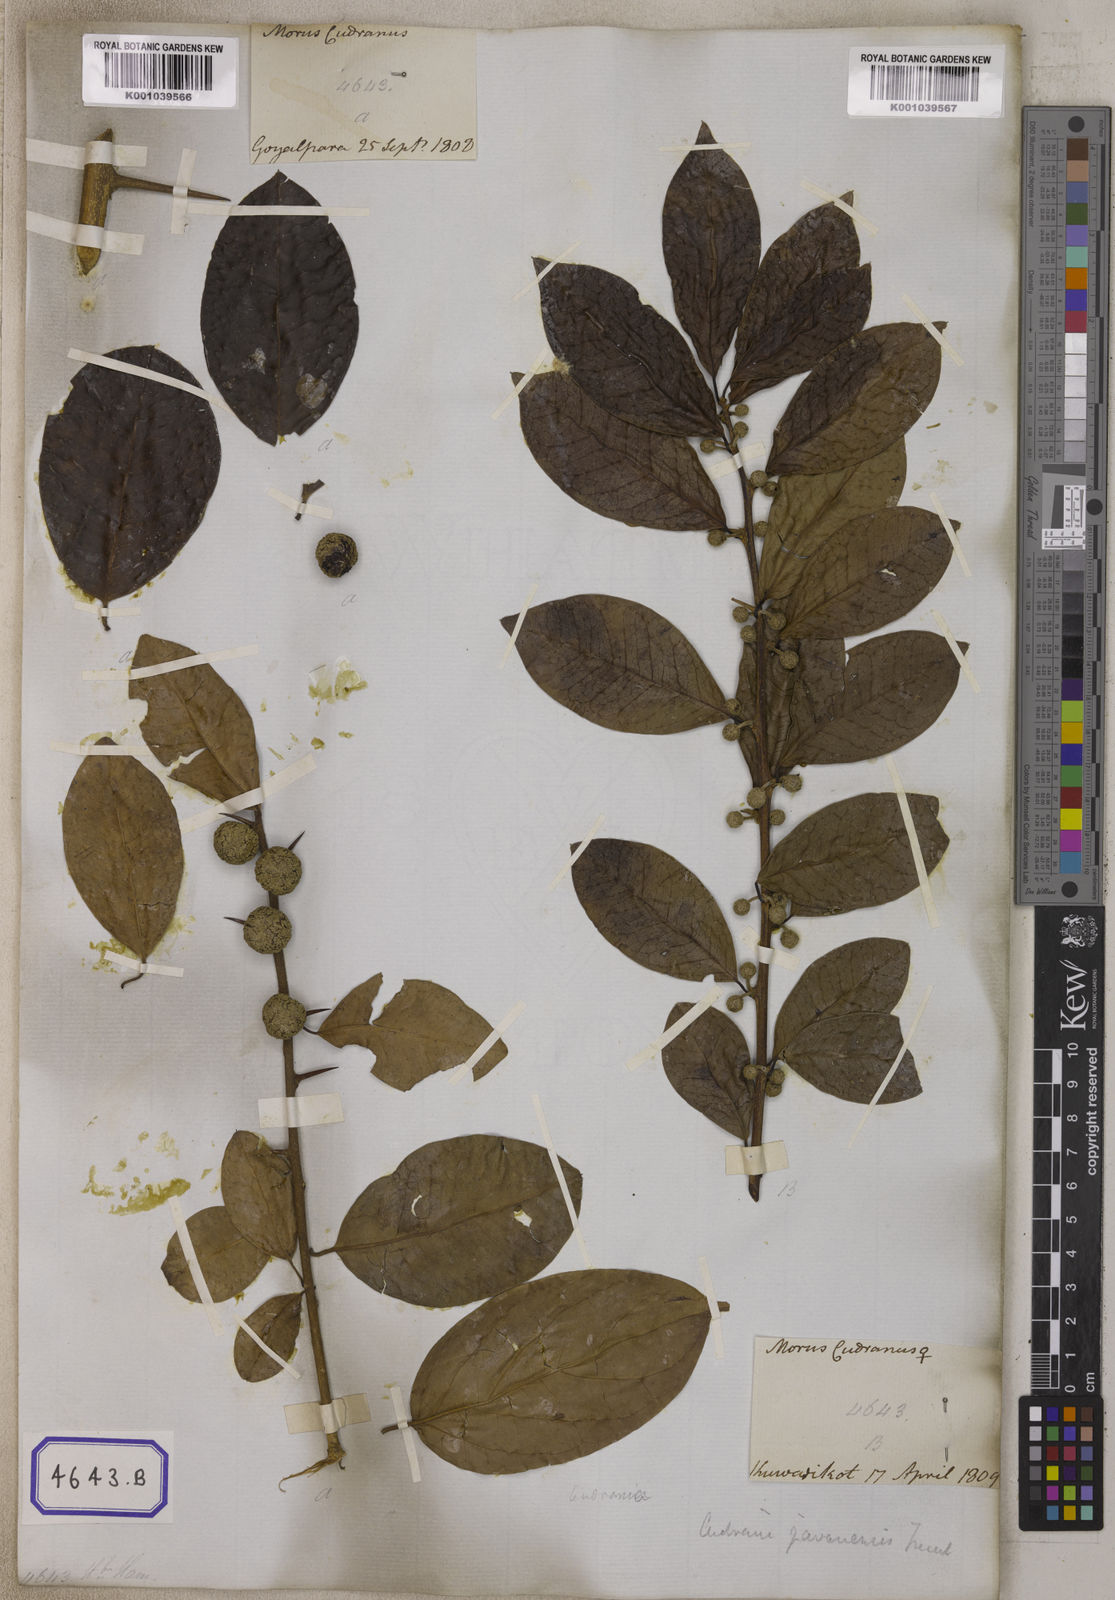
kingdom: Plantae
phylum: Tracheophyta
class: Magnoliopsida
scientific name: Magnoliopsida
